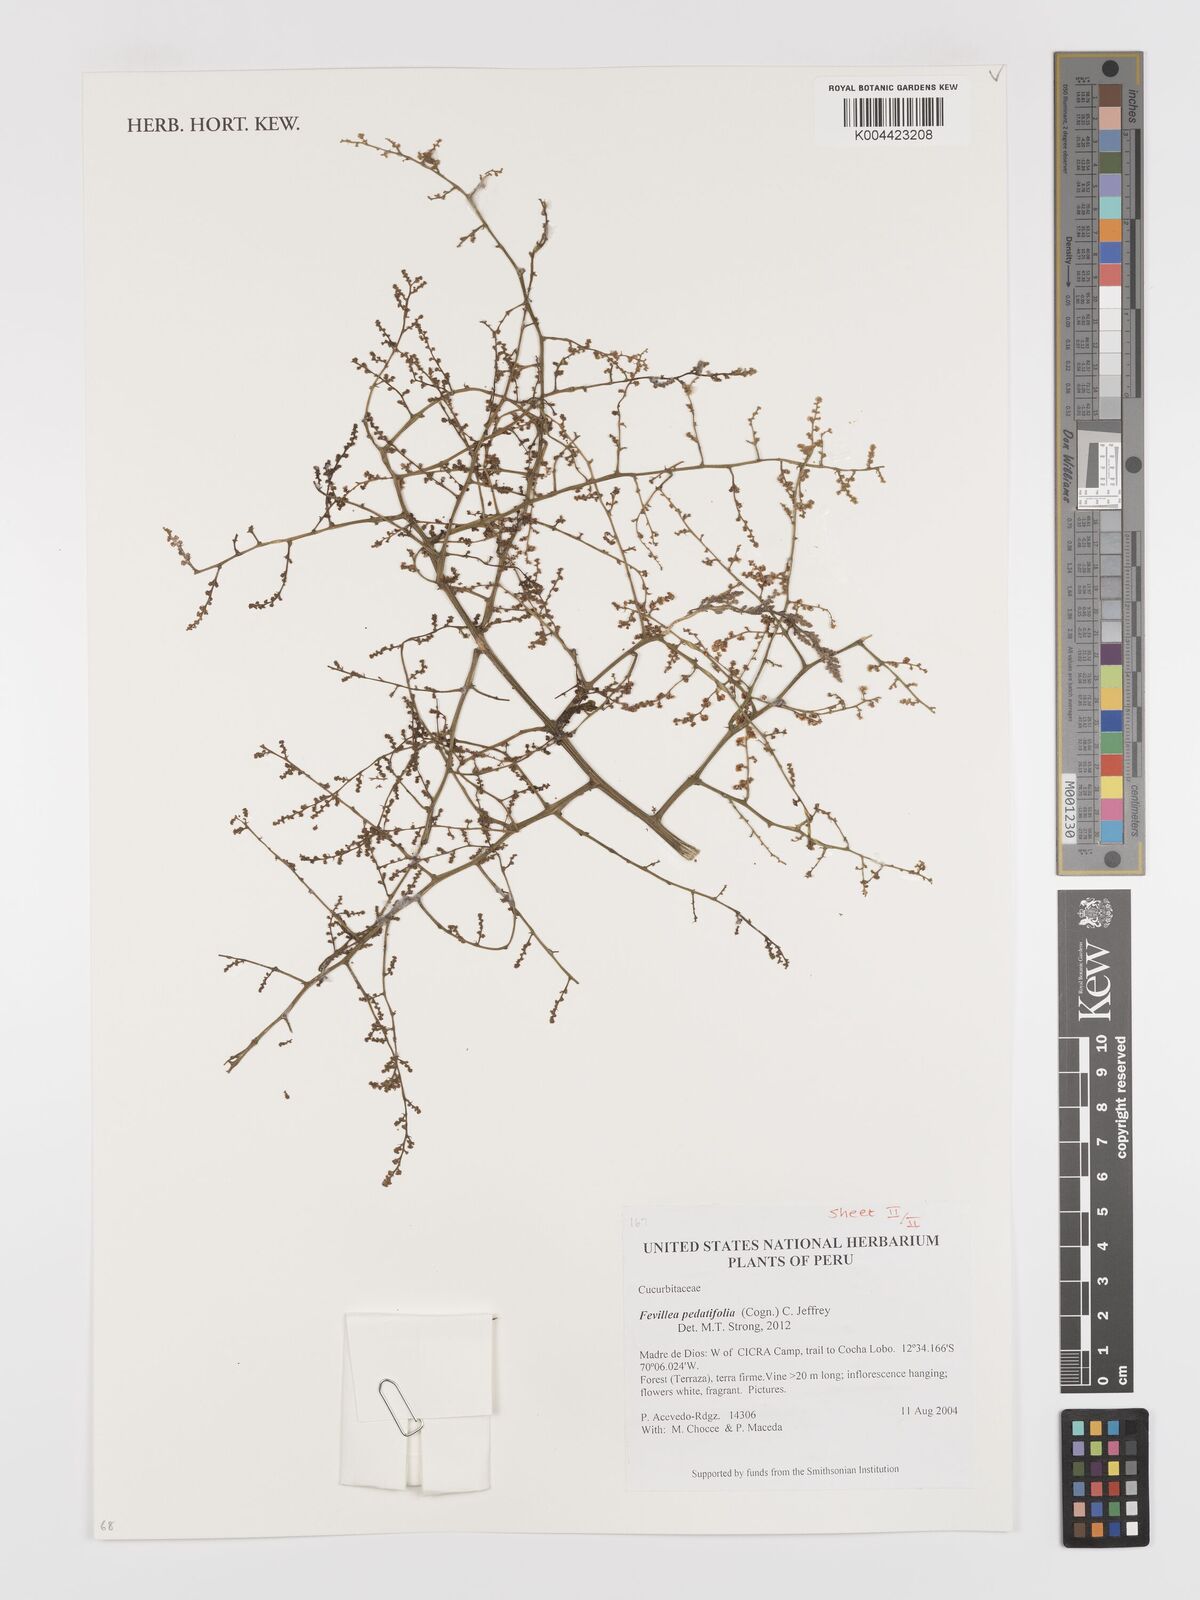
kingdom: Plantae
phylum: Tracheophyta
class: Magnoliopsida
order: Cucurbitales
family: Cucurbitaceae
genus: Fevillea
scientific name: Fevillea pedatifolia
